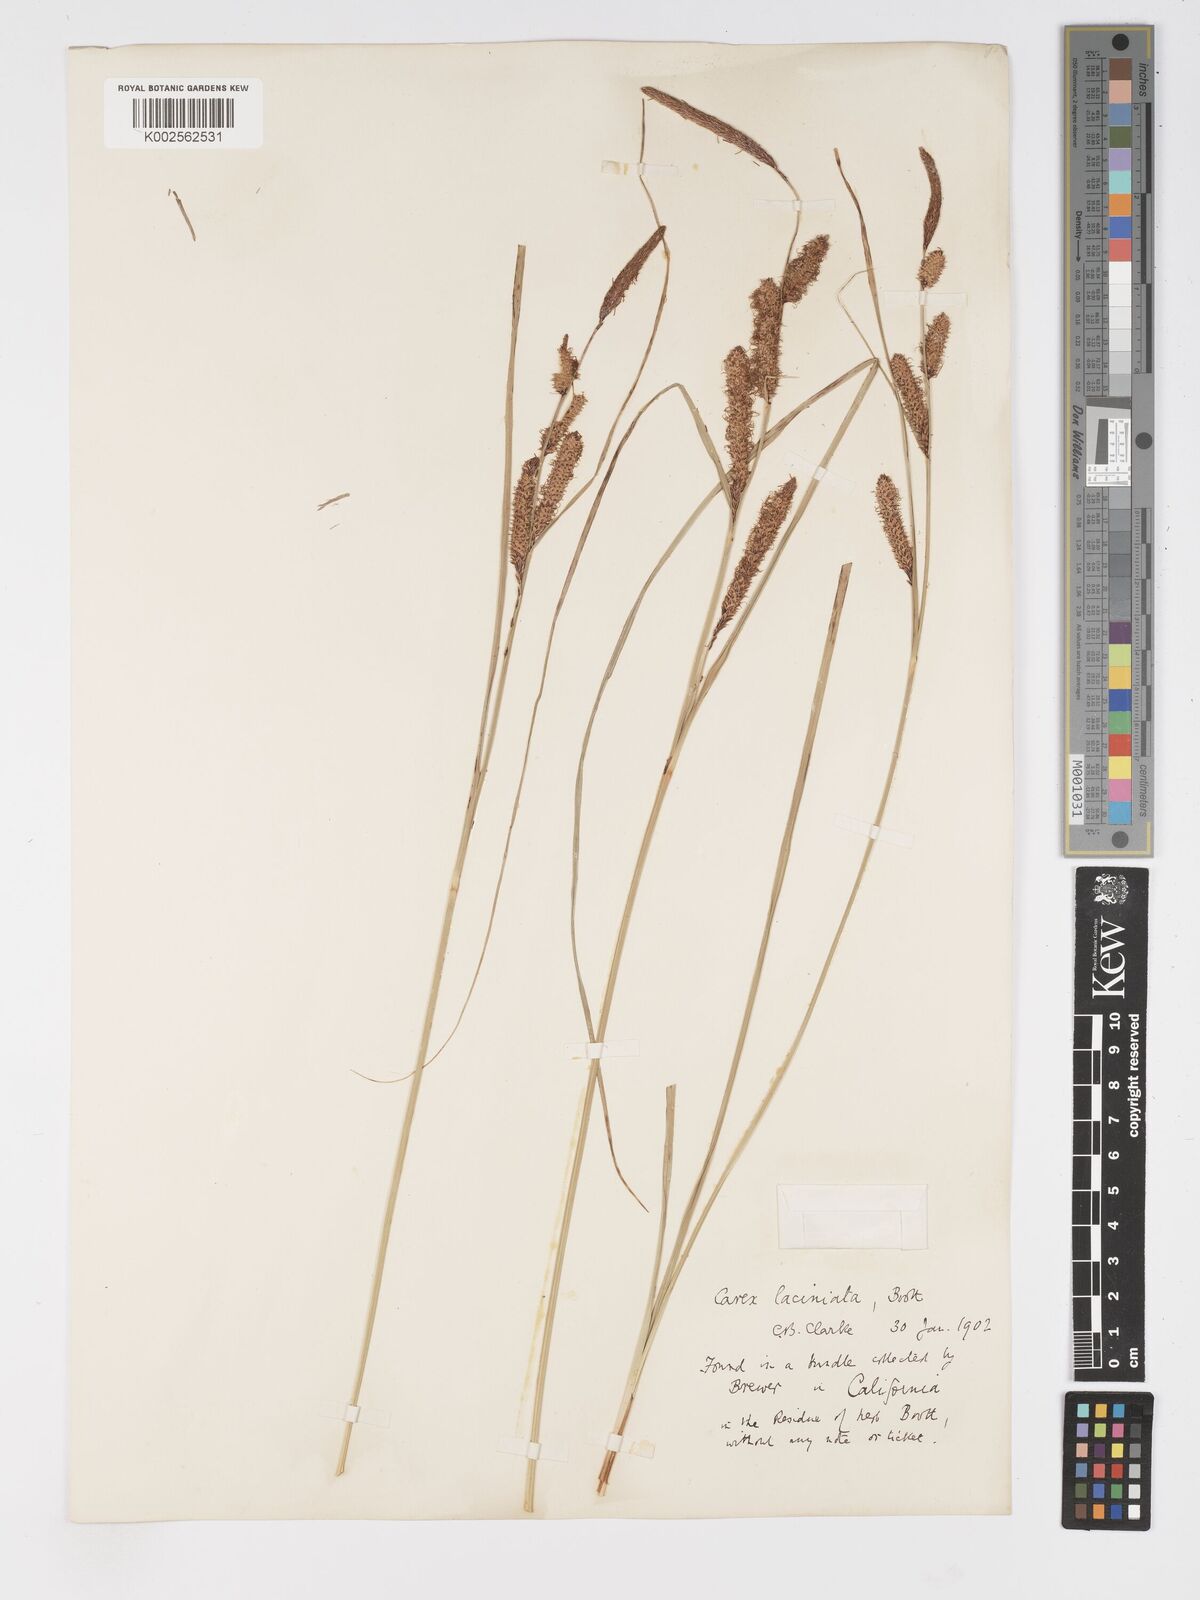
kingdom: Plantae
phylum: Tracheophyta
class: Liliopsida
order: Poales
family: Cyperaceae
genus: Carex
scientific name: Carex barbarae
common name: Santa barbara sedge
